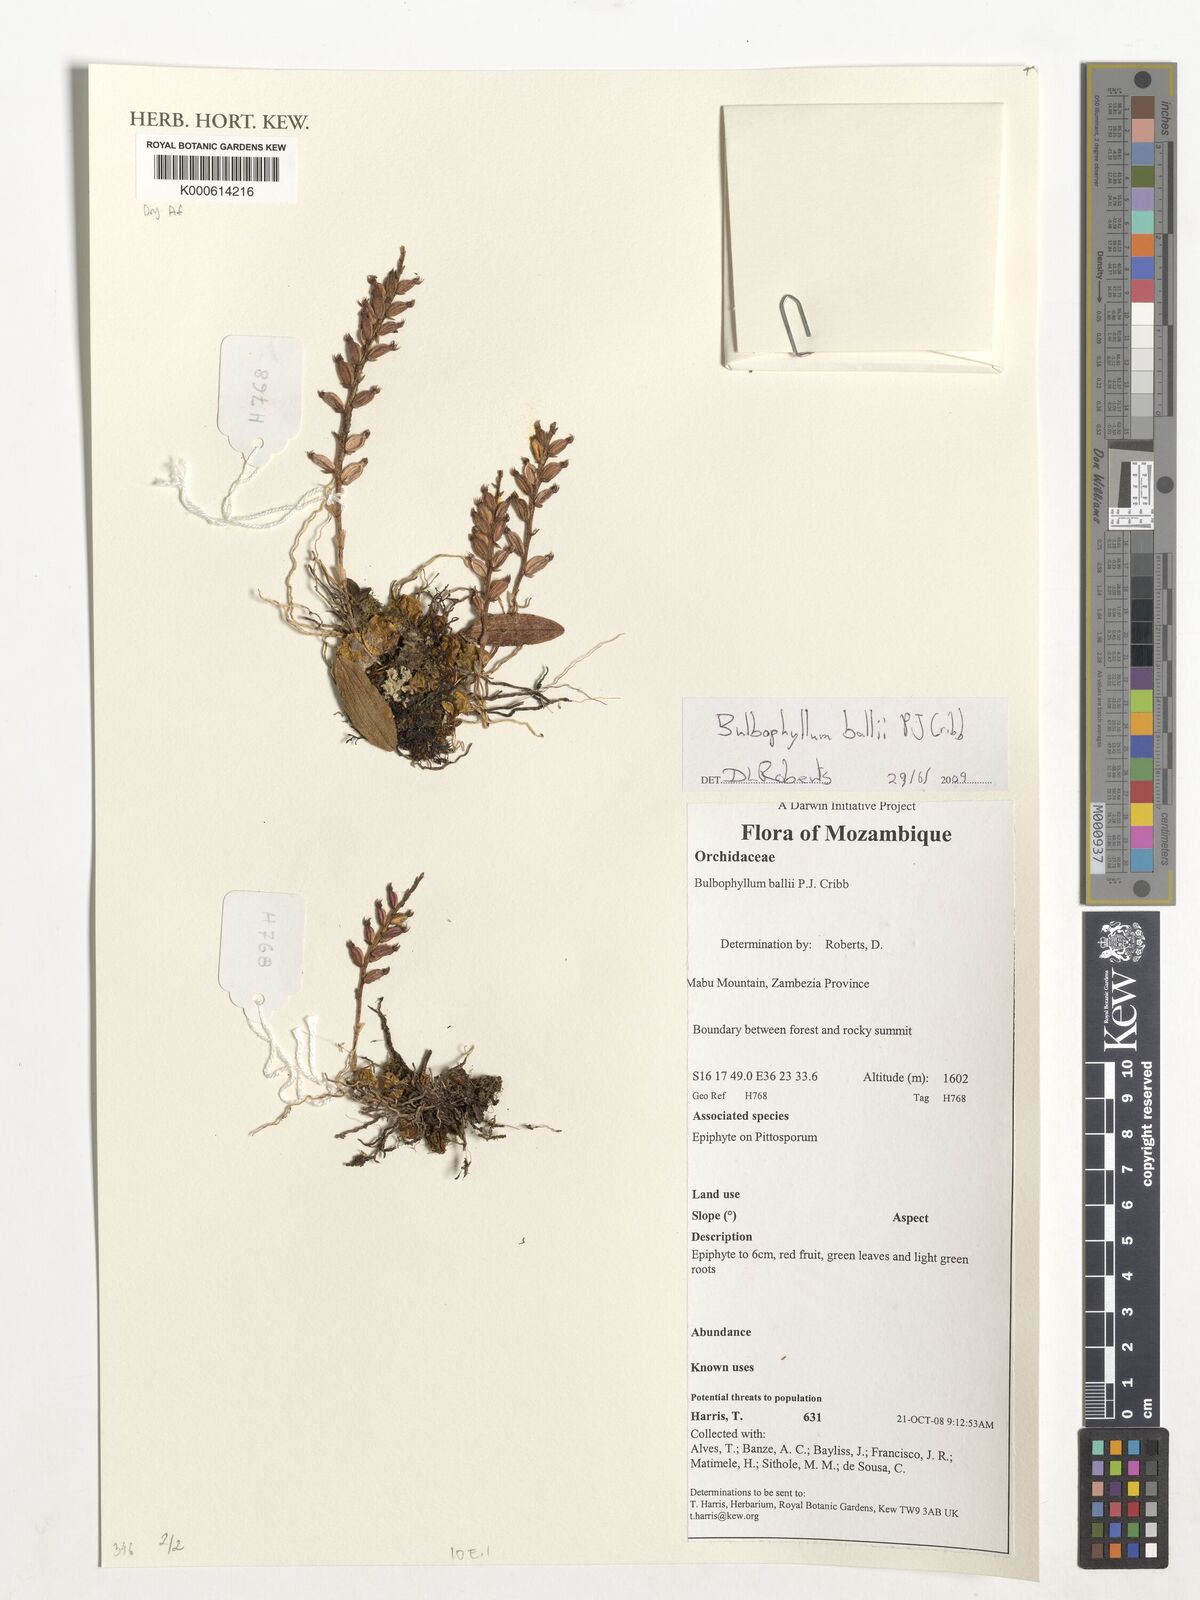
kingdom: Plantae
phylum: Tracheophyta
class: Liliopsida
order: Asparagales
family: Orchidaceae
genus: Bulbophyllum
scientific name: Bulbophyllum ballii
